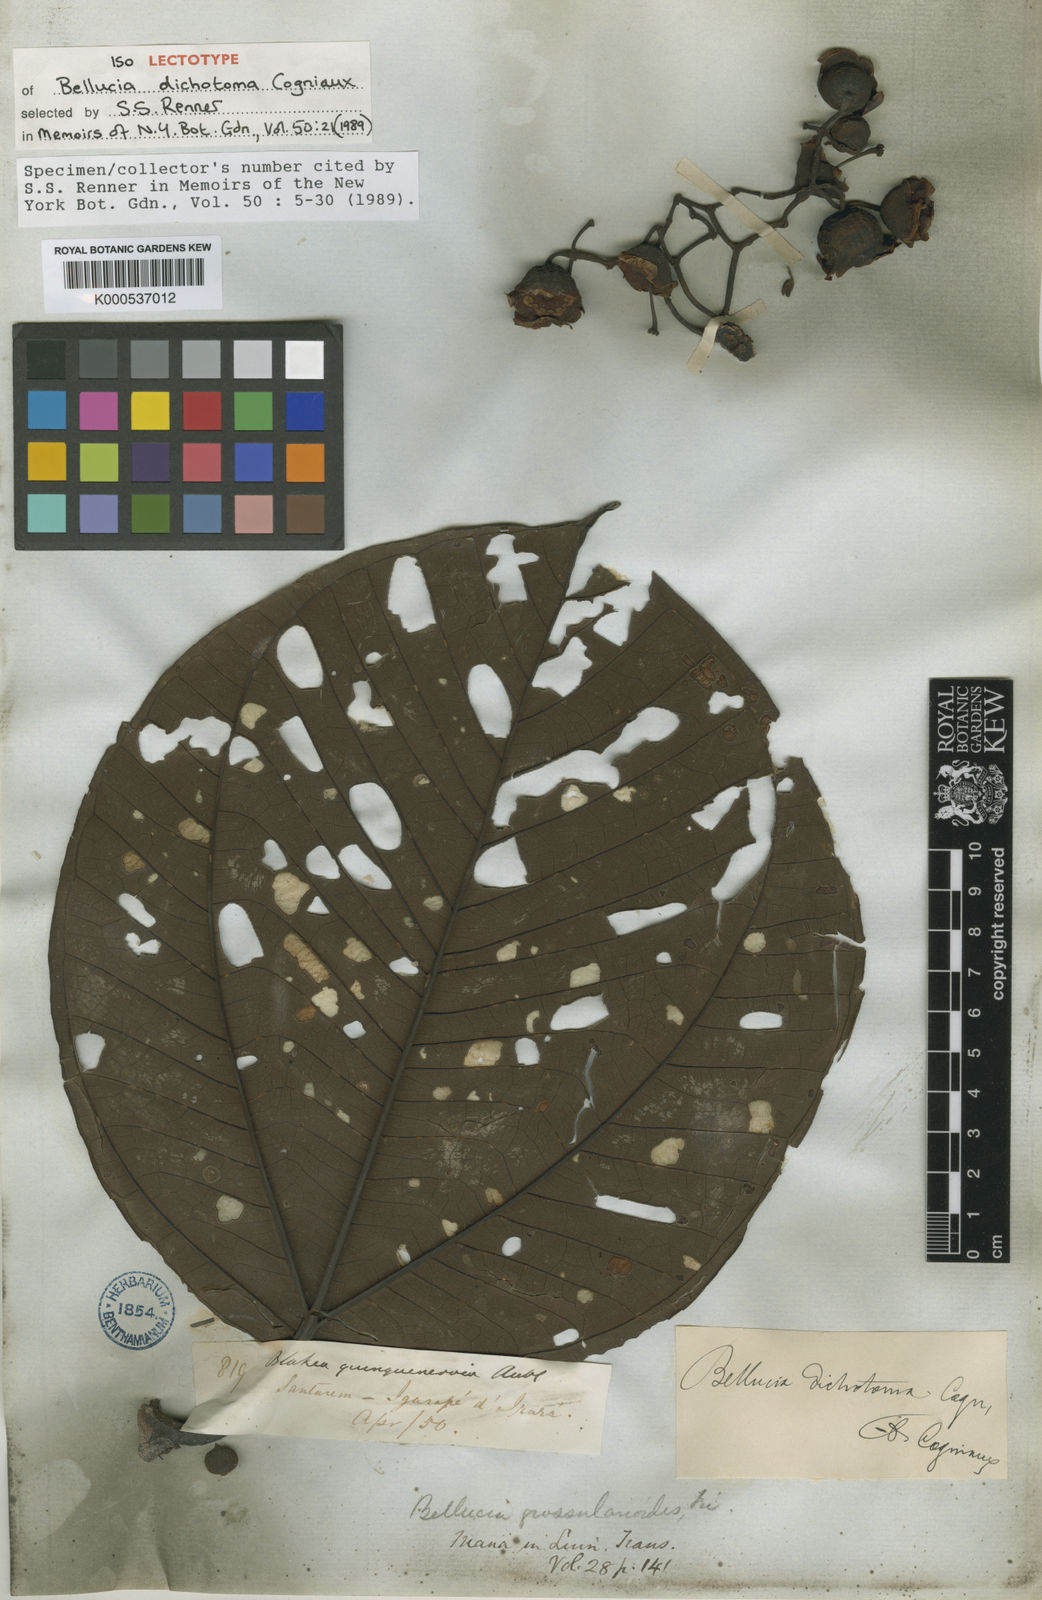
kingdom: Plantae
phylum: Tracheophyta
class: Magnoliopsida
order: Myrtales
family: Melastomataceae
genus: Bellucia
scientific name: Bellucia imperialis
